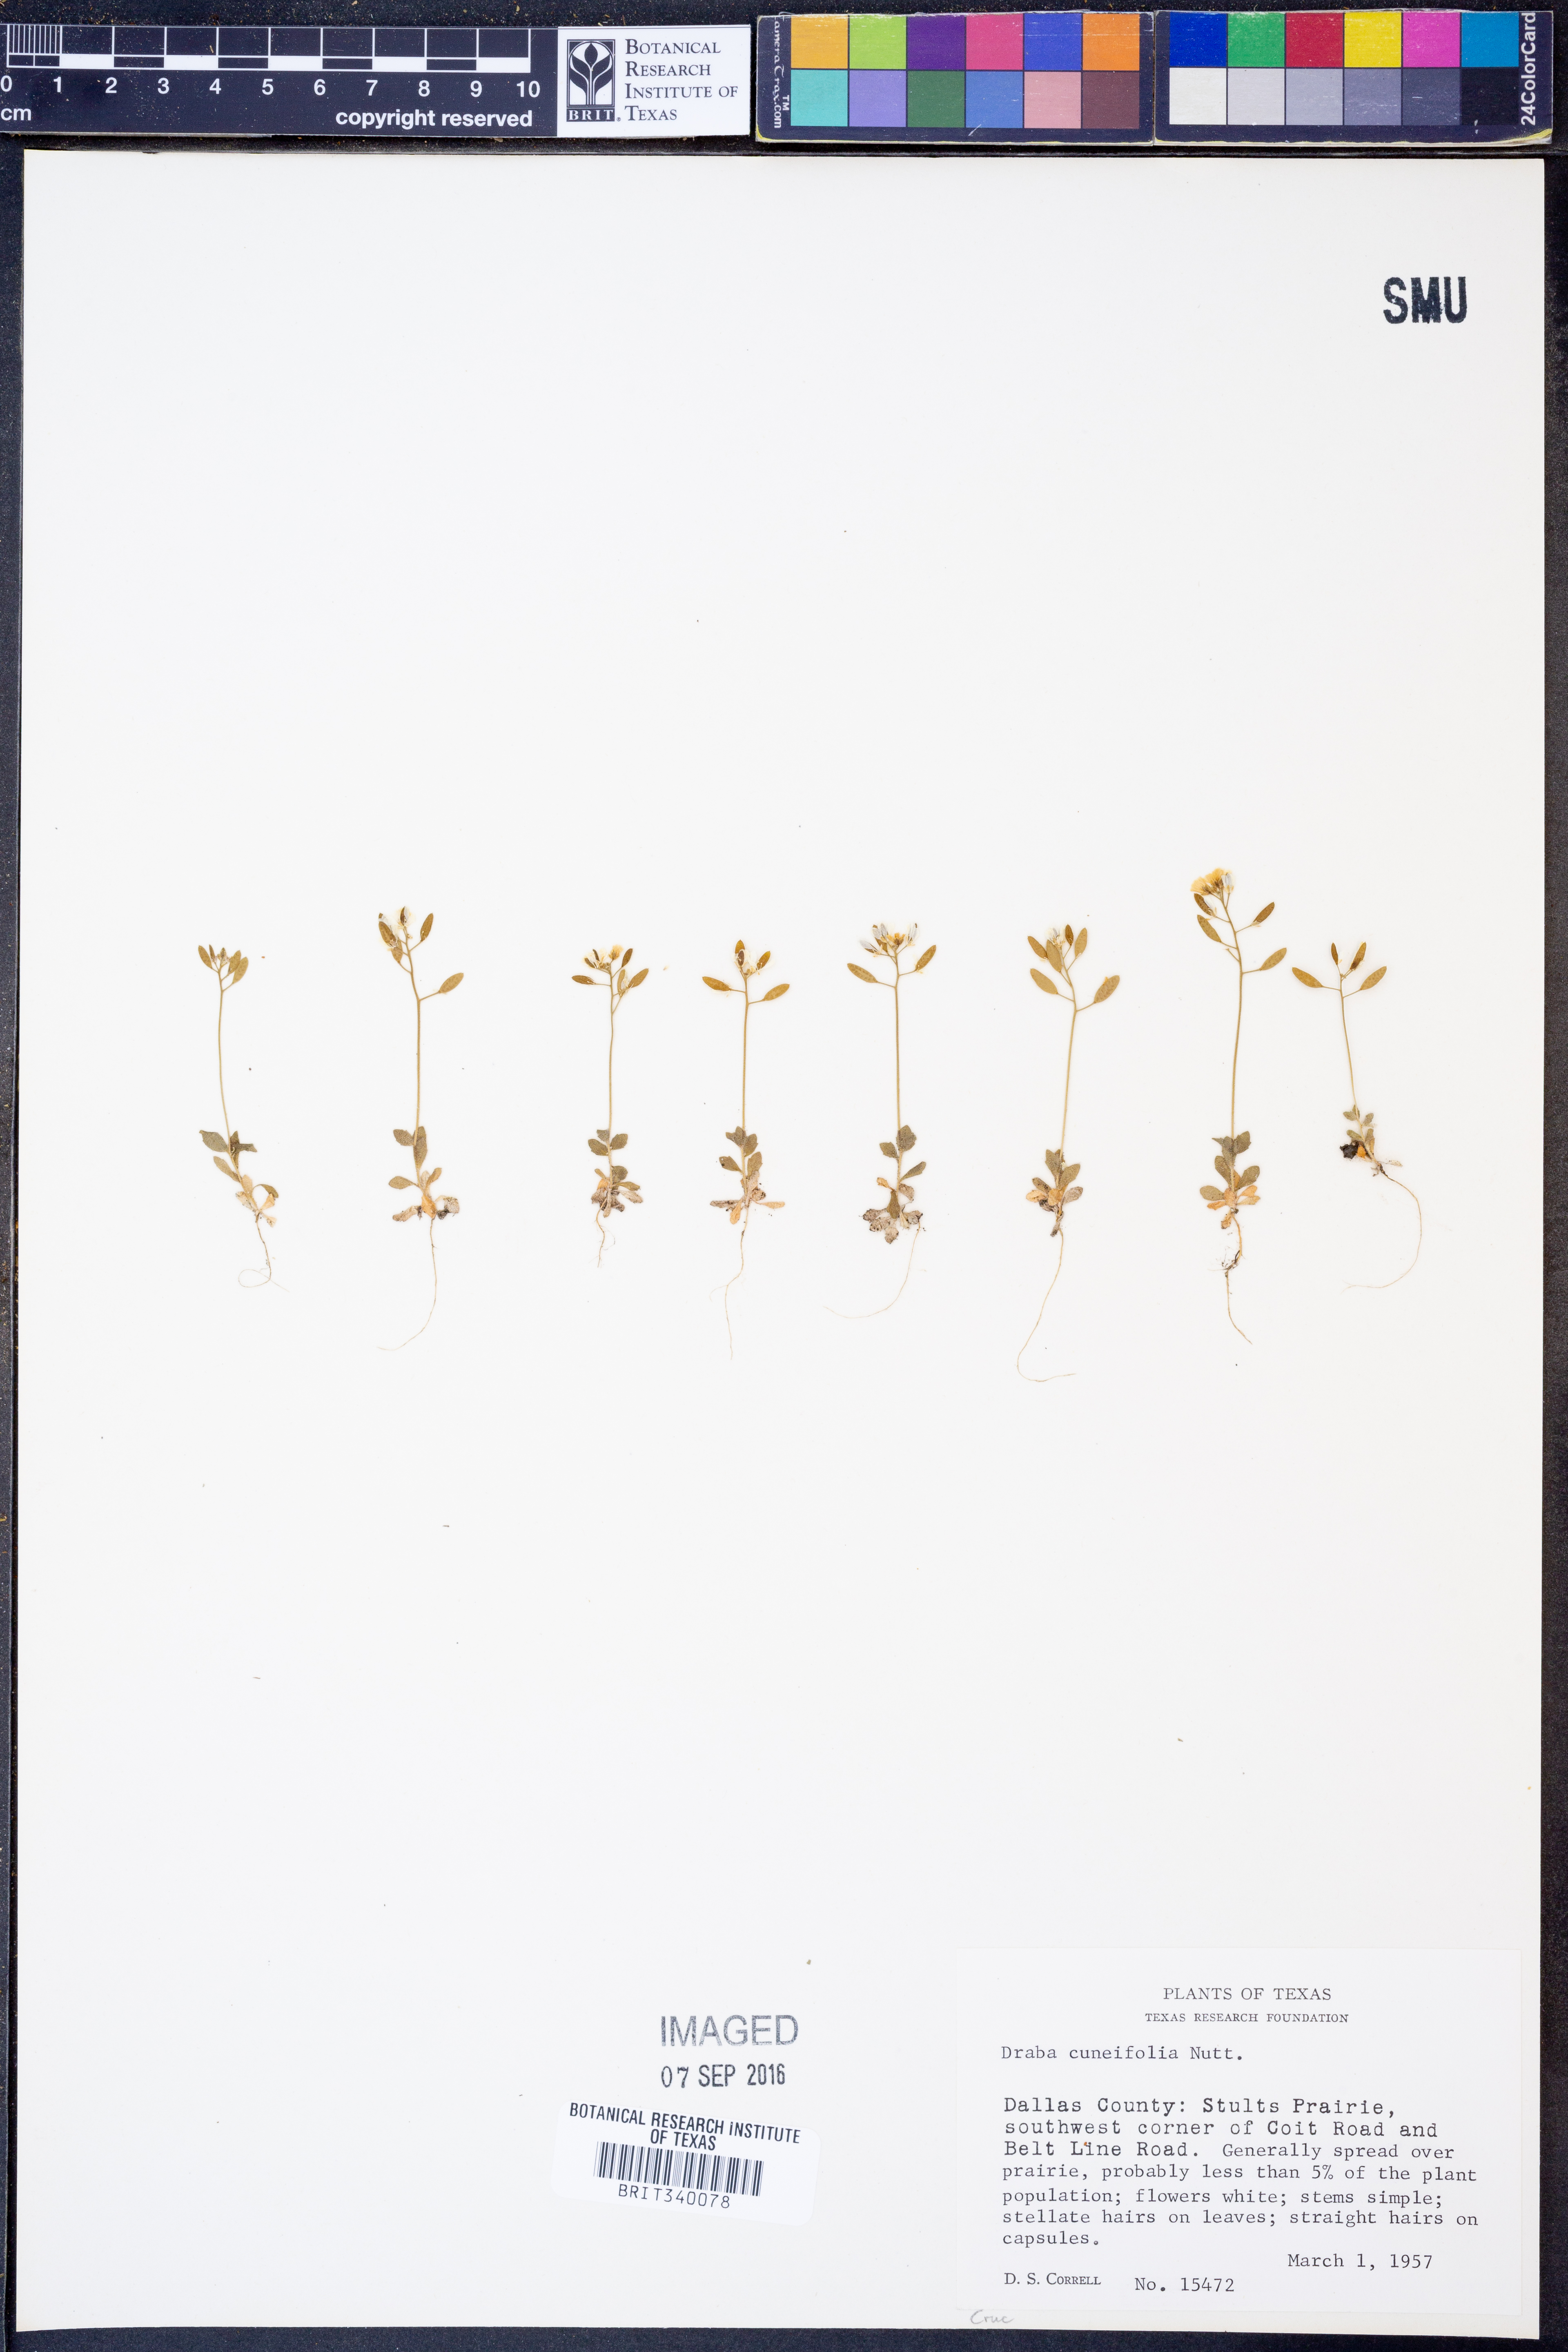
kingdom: Plantae
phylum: Tracheophyta
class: Magnoliopsida
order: Brassicales
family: Brassicaceae
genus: Tomostima
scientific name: Tomostima cuneifolia
